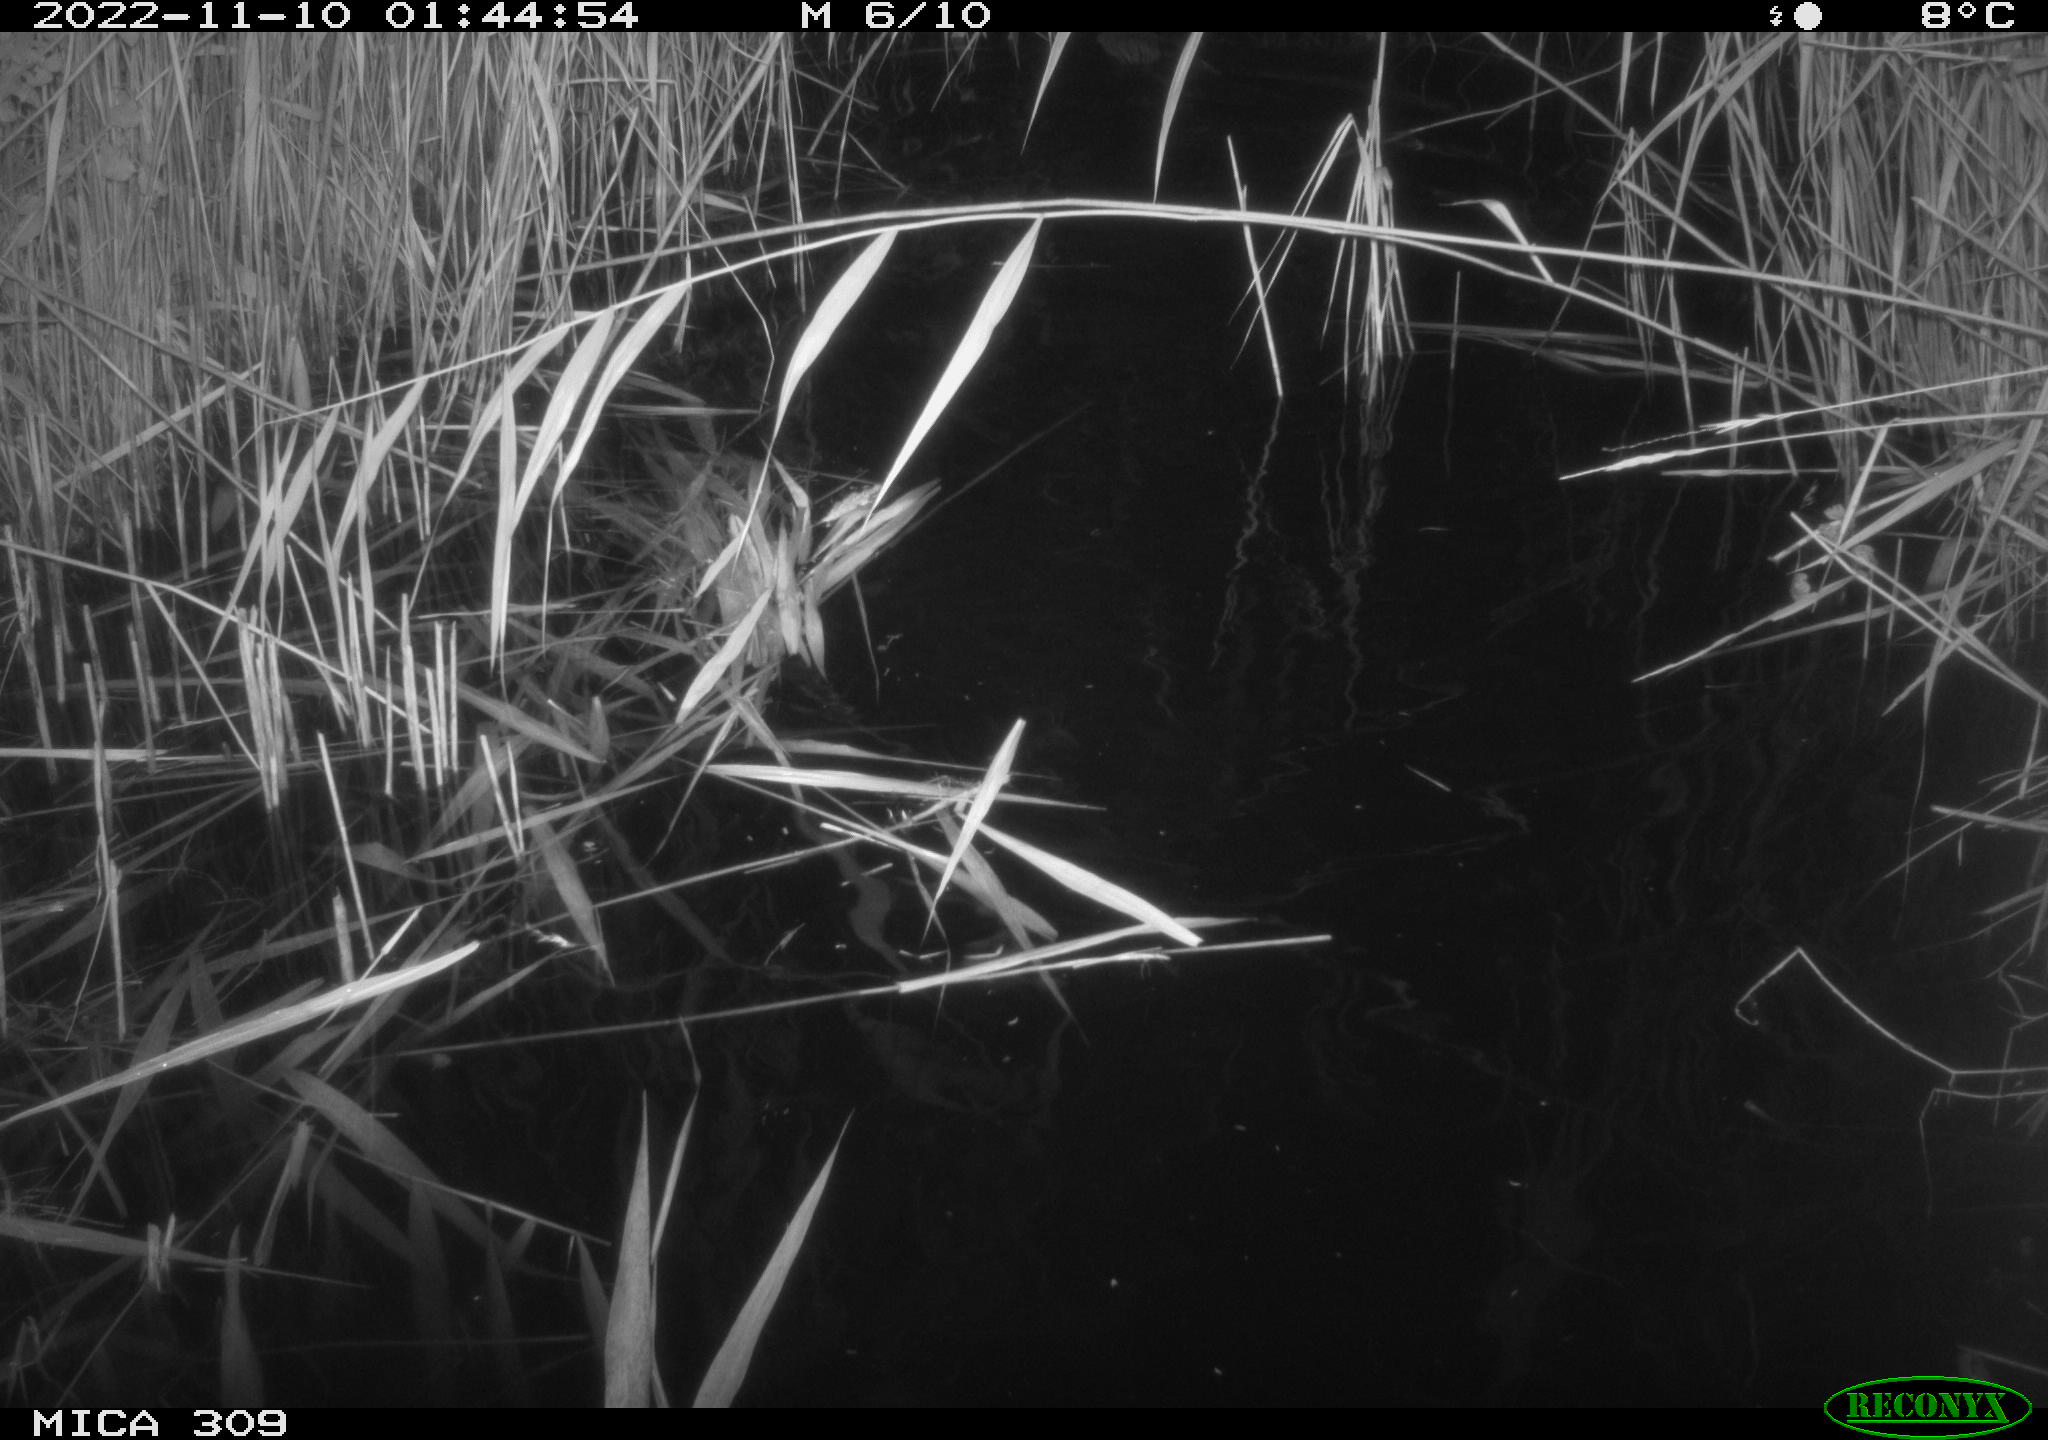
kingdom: Animalia
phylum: Chordata
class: Mammalia
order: Rodentia
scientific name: Rodentia
